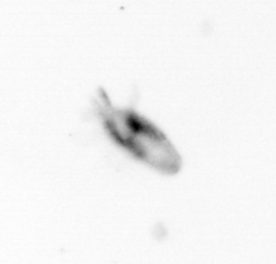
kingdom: Animalia
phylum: Arthropoda
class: Copepoda
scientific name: Copepoda
